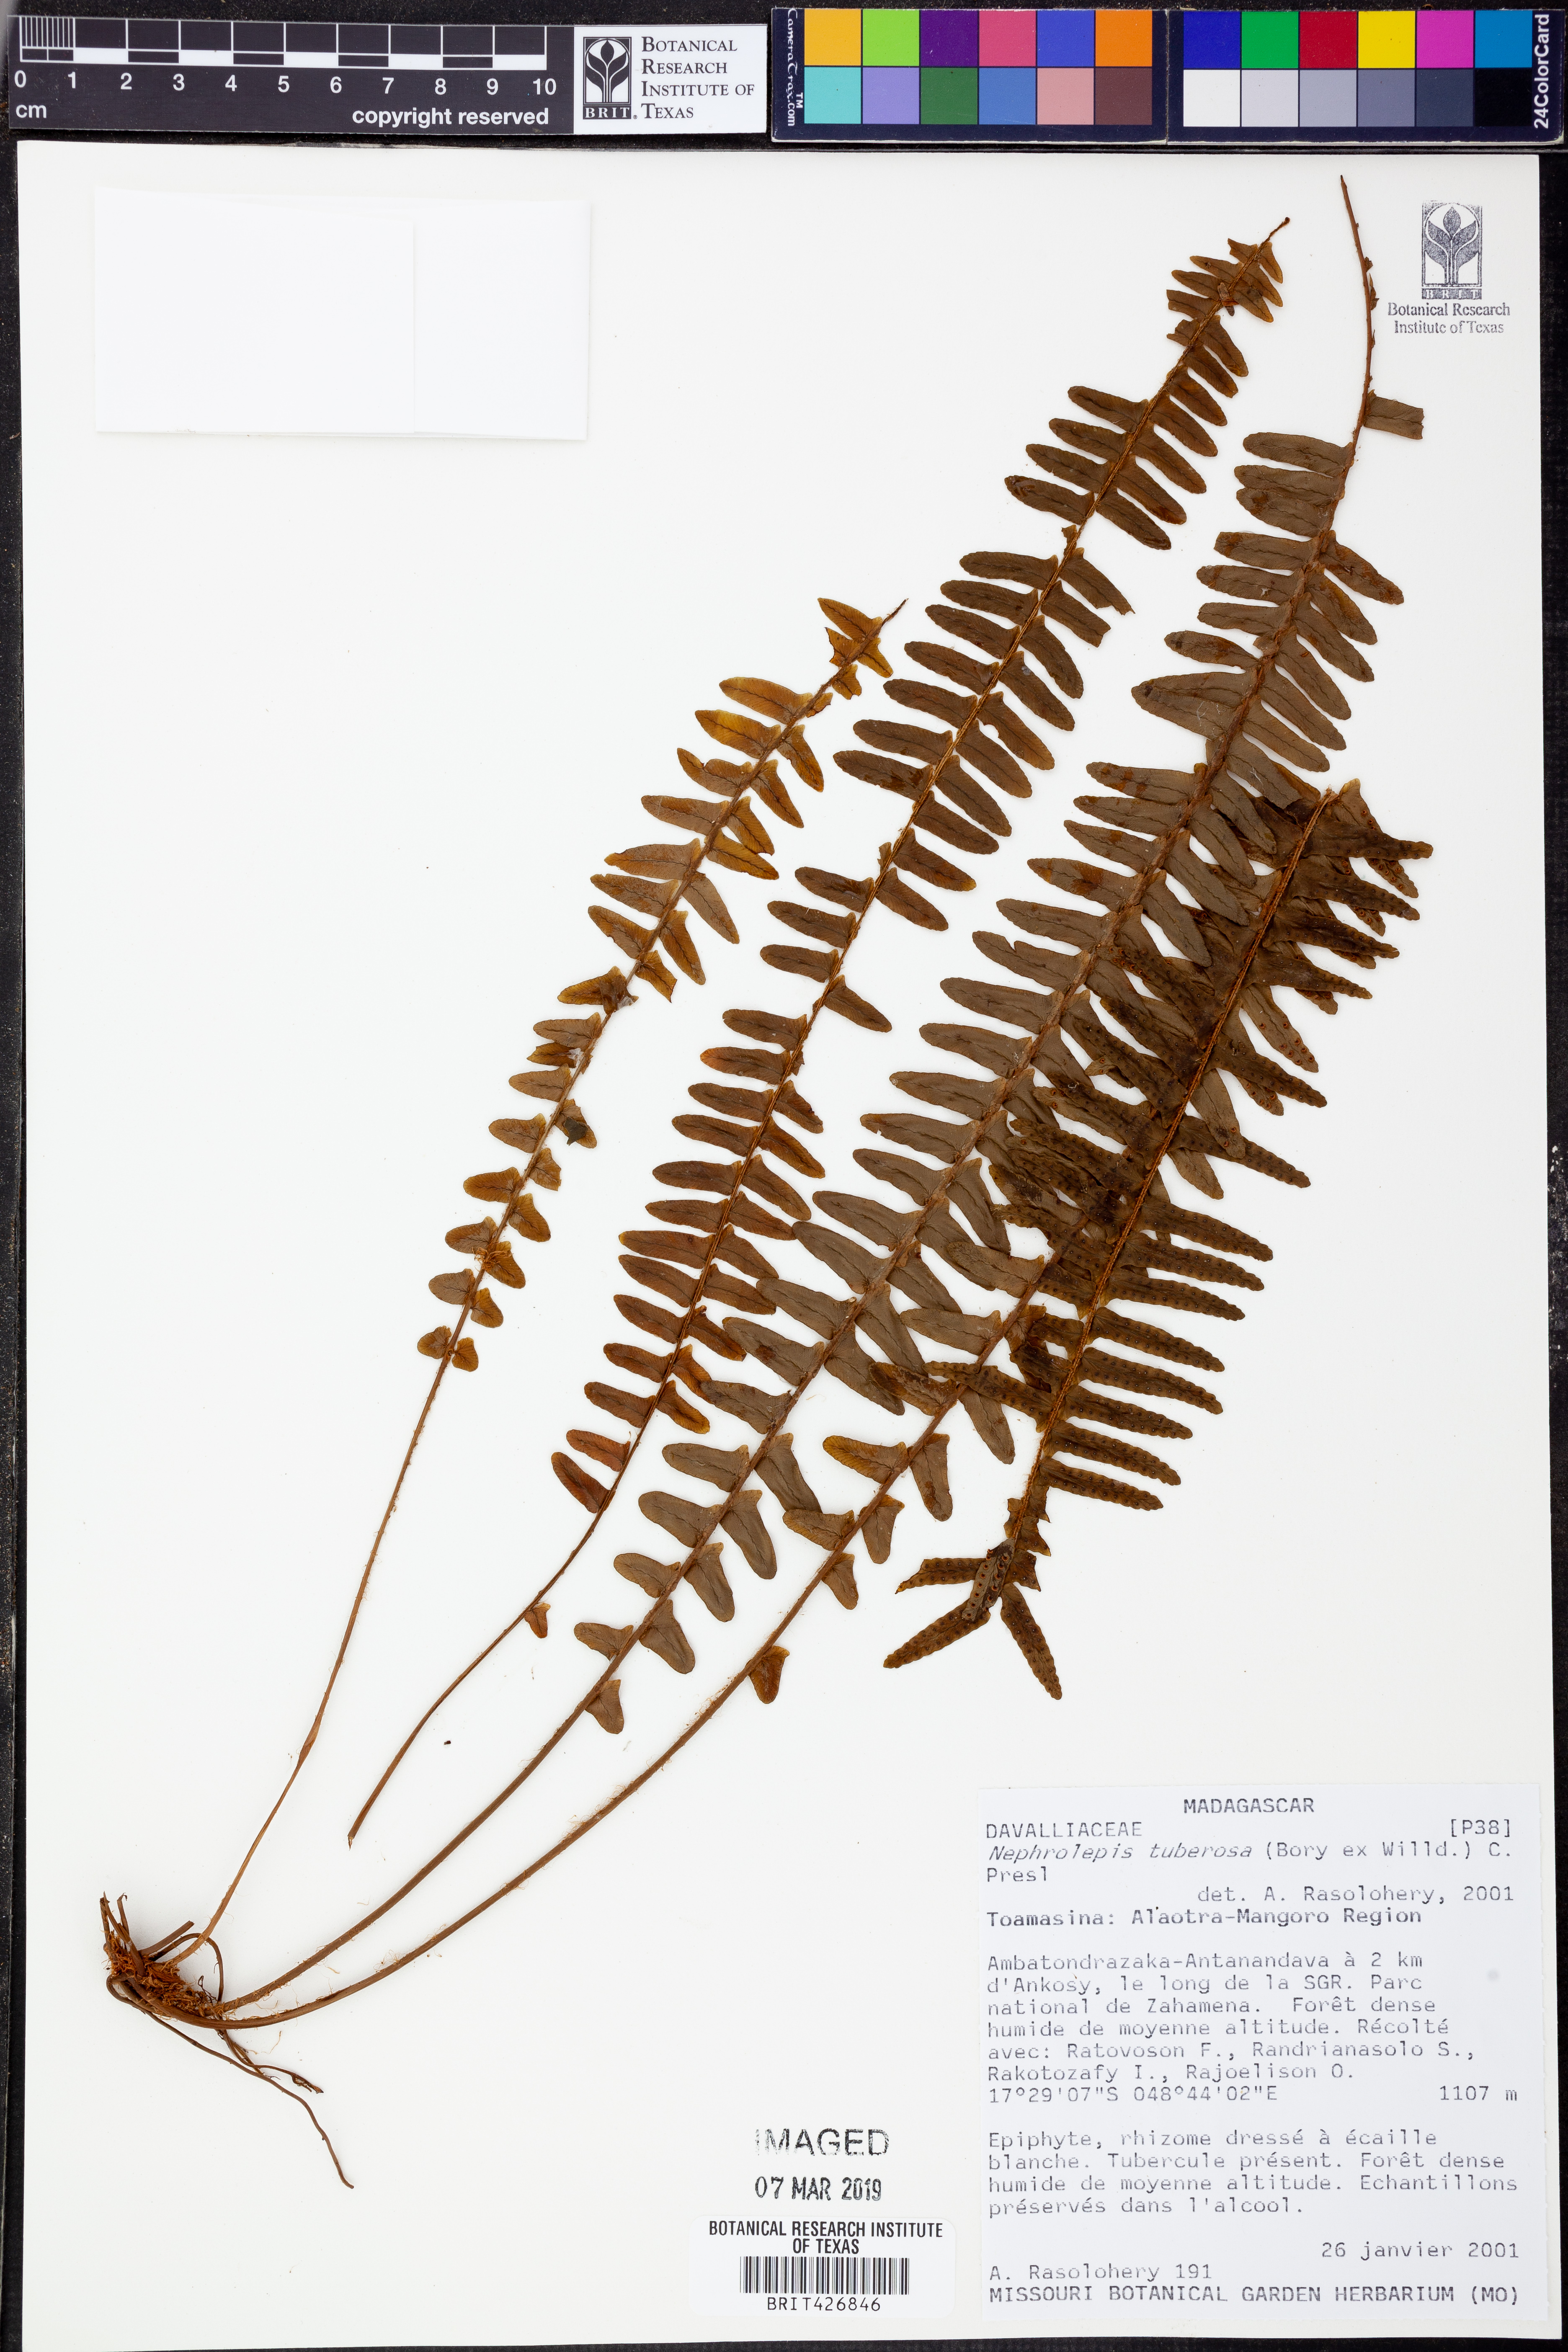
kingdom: Plantae
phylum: Tracheophyta
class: Polypodiopsida
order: Polypodiales
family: Nephrolepidaceae
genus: Nephrolepis
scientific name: Nephrolepis cordifolia
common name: Narrow swordfern
